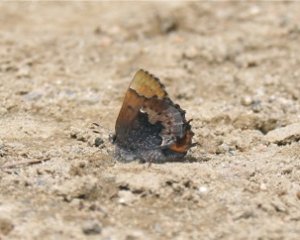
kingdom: Animalia
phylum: Arthropoda
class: Insecta
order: Lepidoptera
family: Lycaenidae
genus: Incisalia
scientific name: Incisalia henrici
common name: Henry's Elfin
